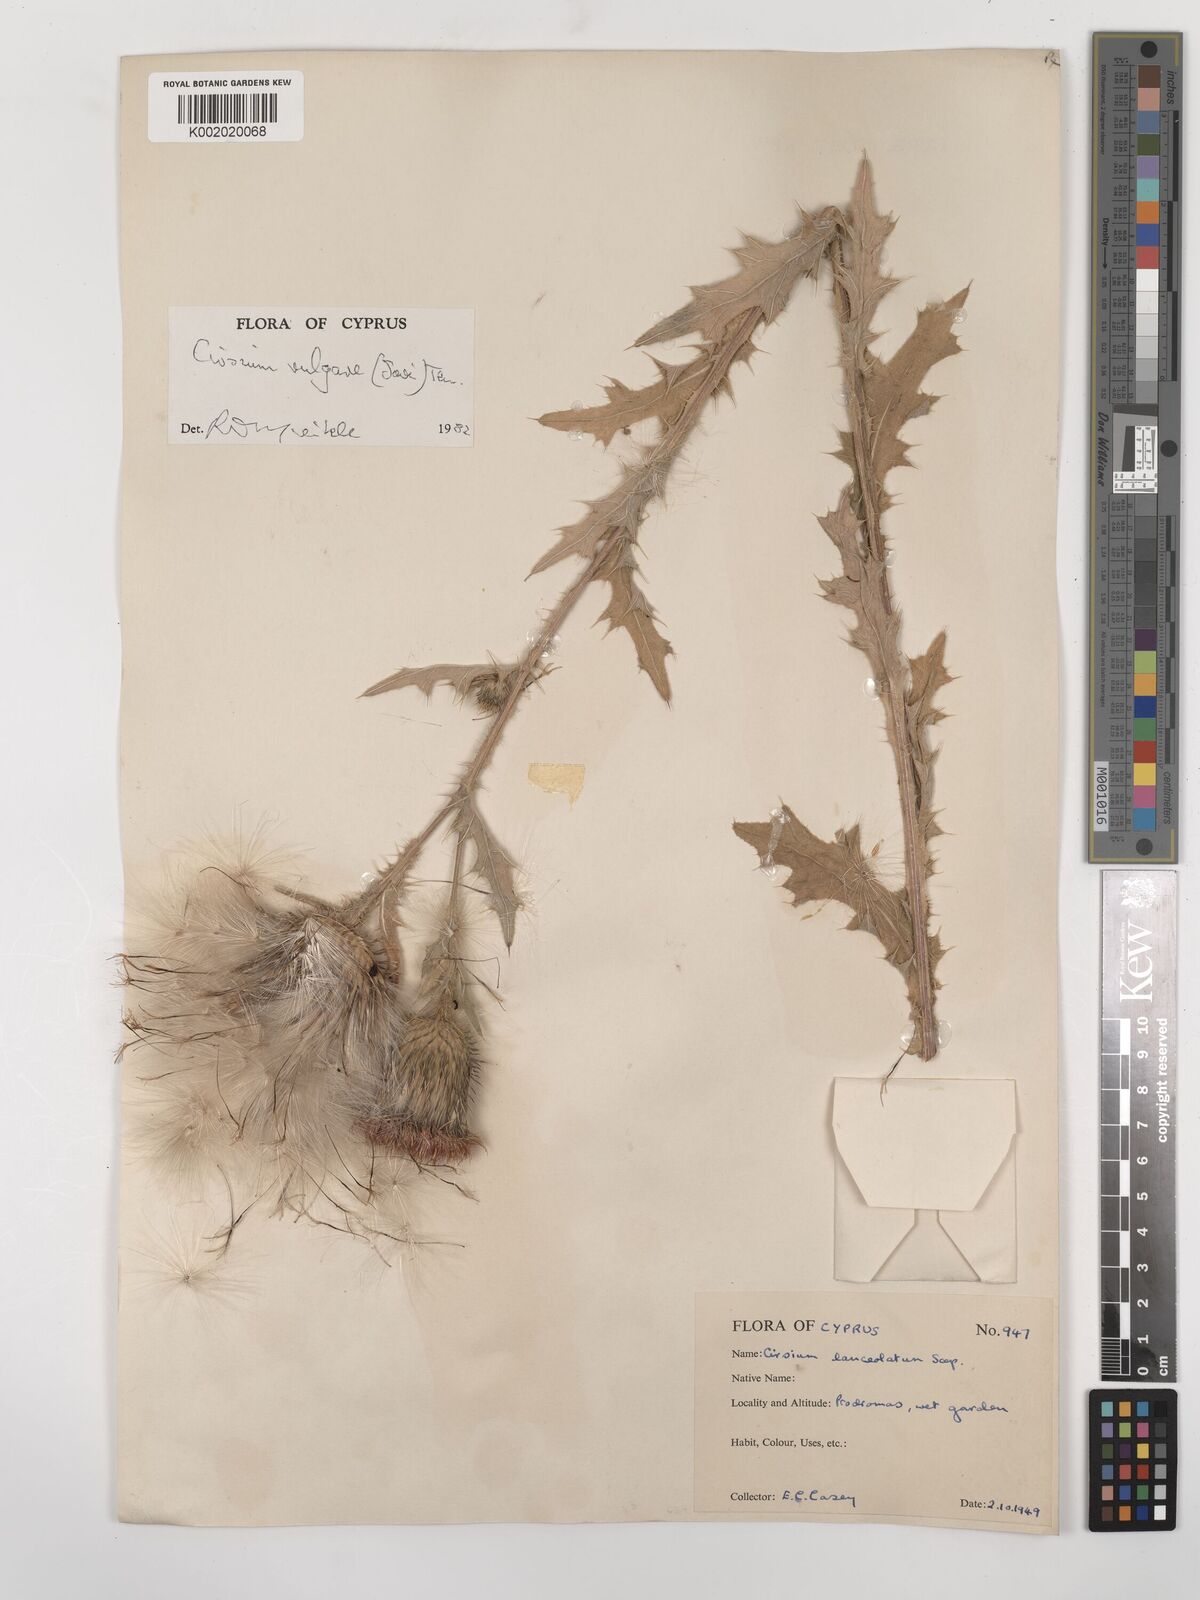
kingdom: Plantae
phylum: Tracheophyta
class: Magnoliopsida
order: Asterales
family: Asteraceae
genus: Cirsium
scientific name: Cirsium vulgare
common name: Bull thistle
